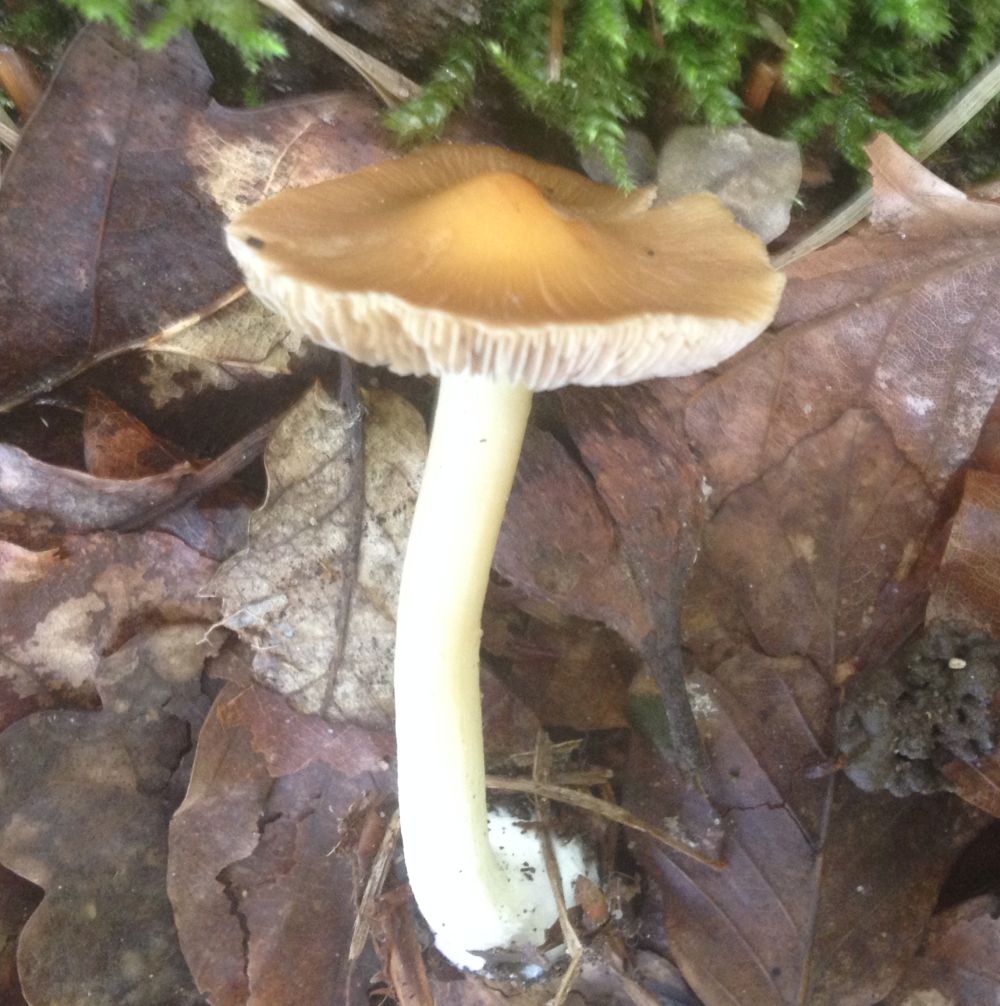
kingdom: Fungi
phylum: Basidiomycota
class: Agaricomycetes
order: Agaricales
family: Inocybaceae
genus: Inocybe
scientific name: Inocybe
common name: trævlhat
